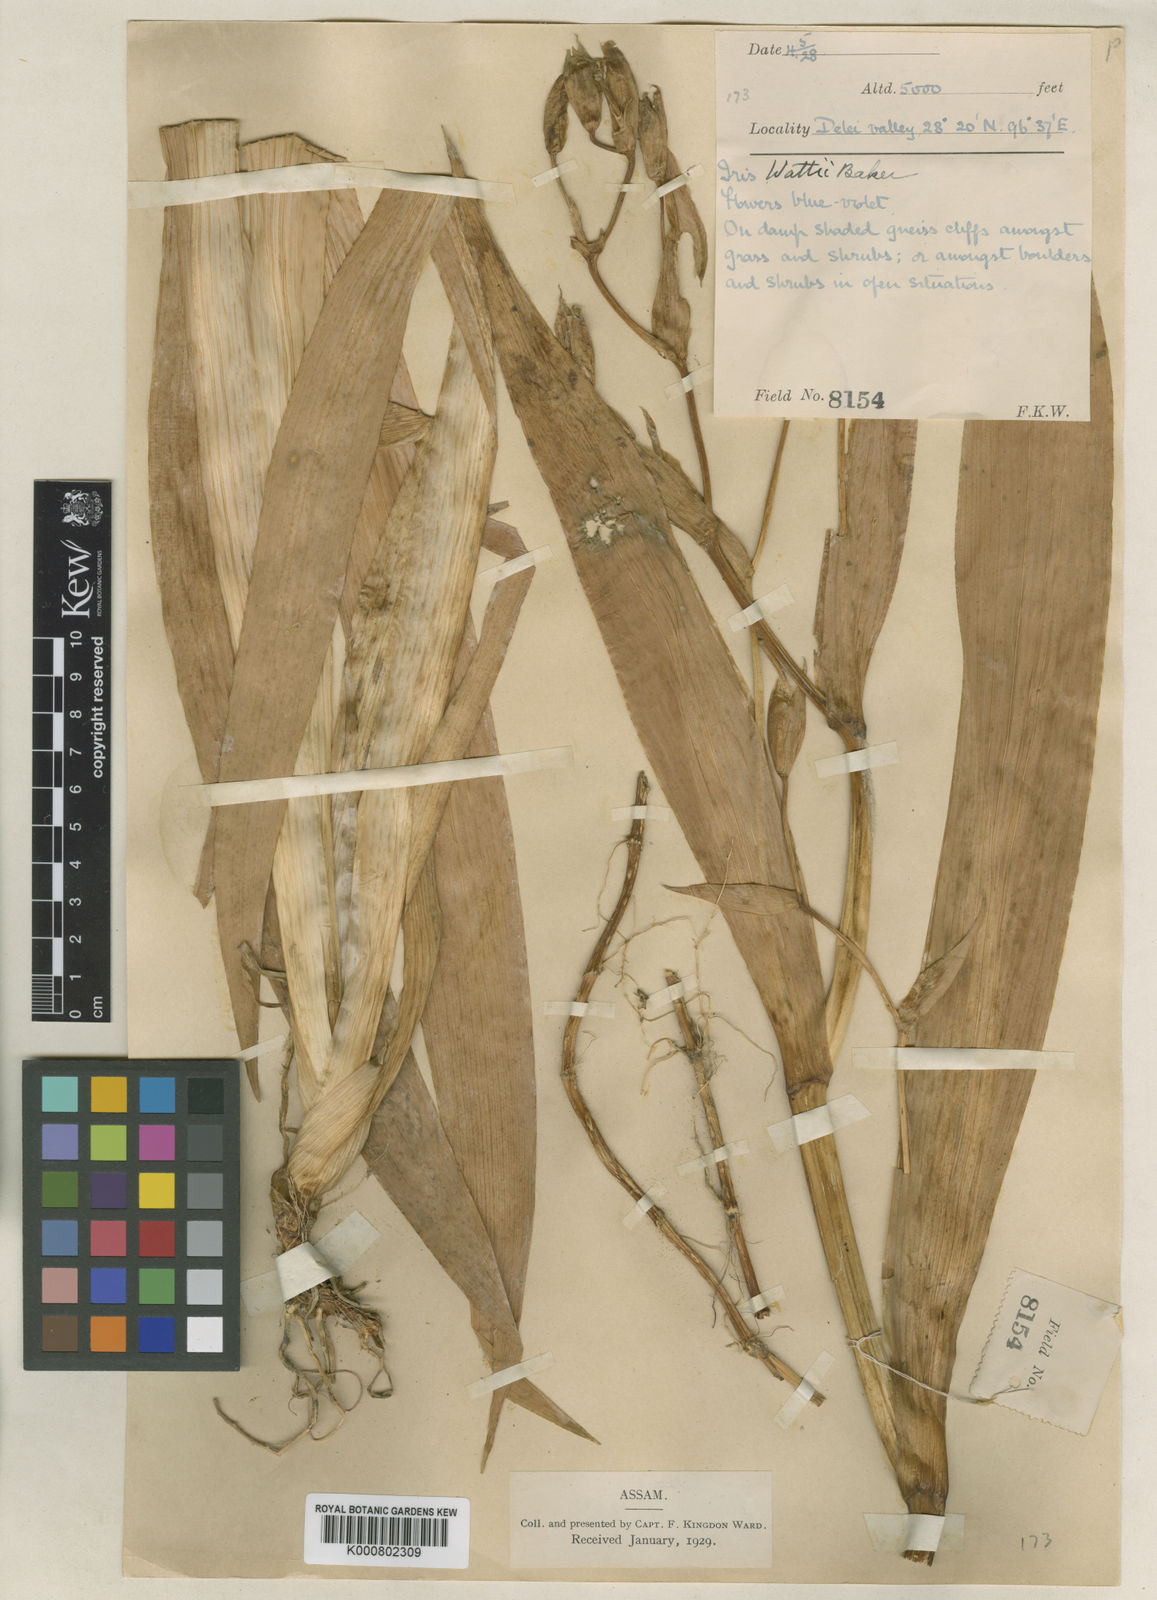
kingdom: Plantae
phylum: Tracheophyta
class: Liliopsida
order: Asparagales
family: Iridaceae
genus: Iris
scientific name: Iris wattii
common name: Fan-shape iris
